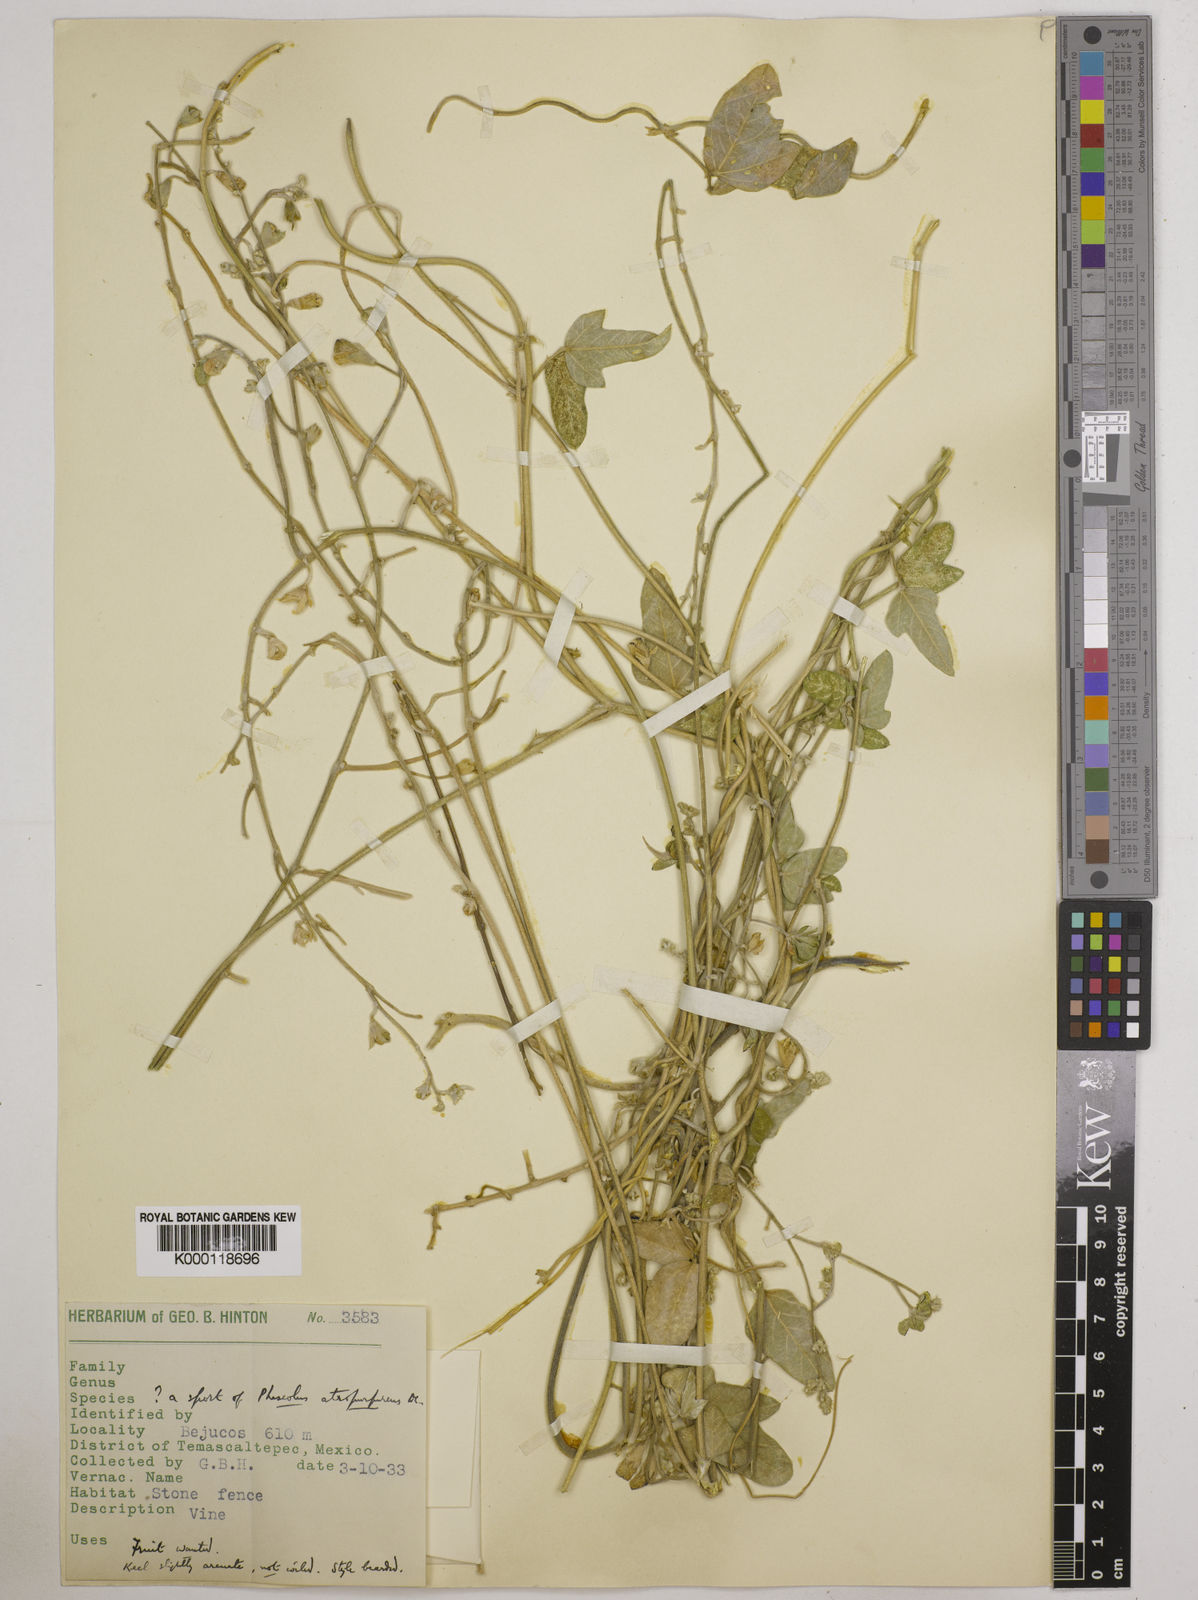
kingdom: Plantae
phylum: Tracheophyta
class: Magnoliopsida
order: Fabales
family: Fabaceae
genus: Macroptilium
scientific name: Macroptilium atropurpureum
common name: Purple bushbean
